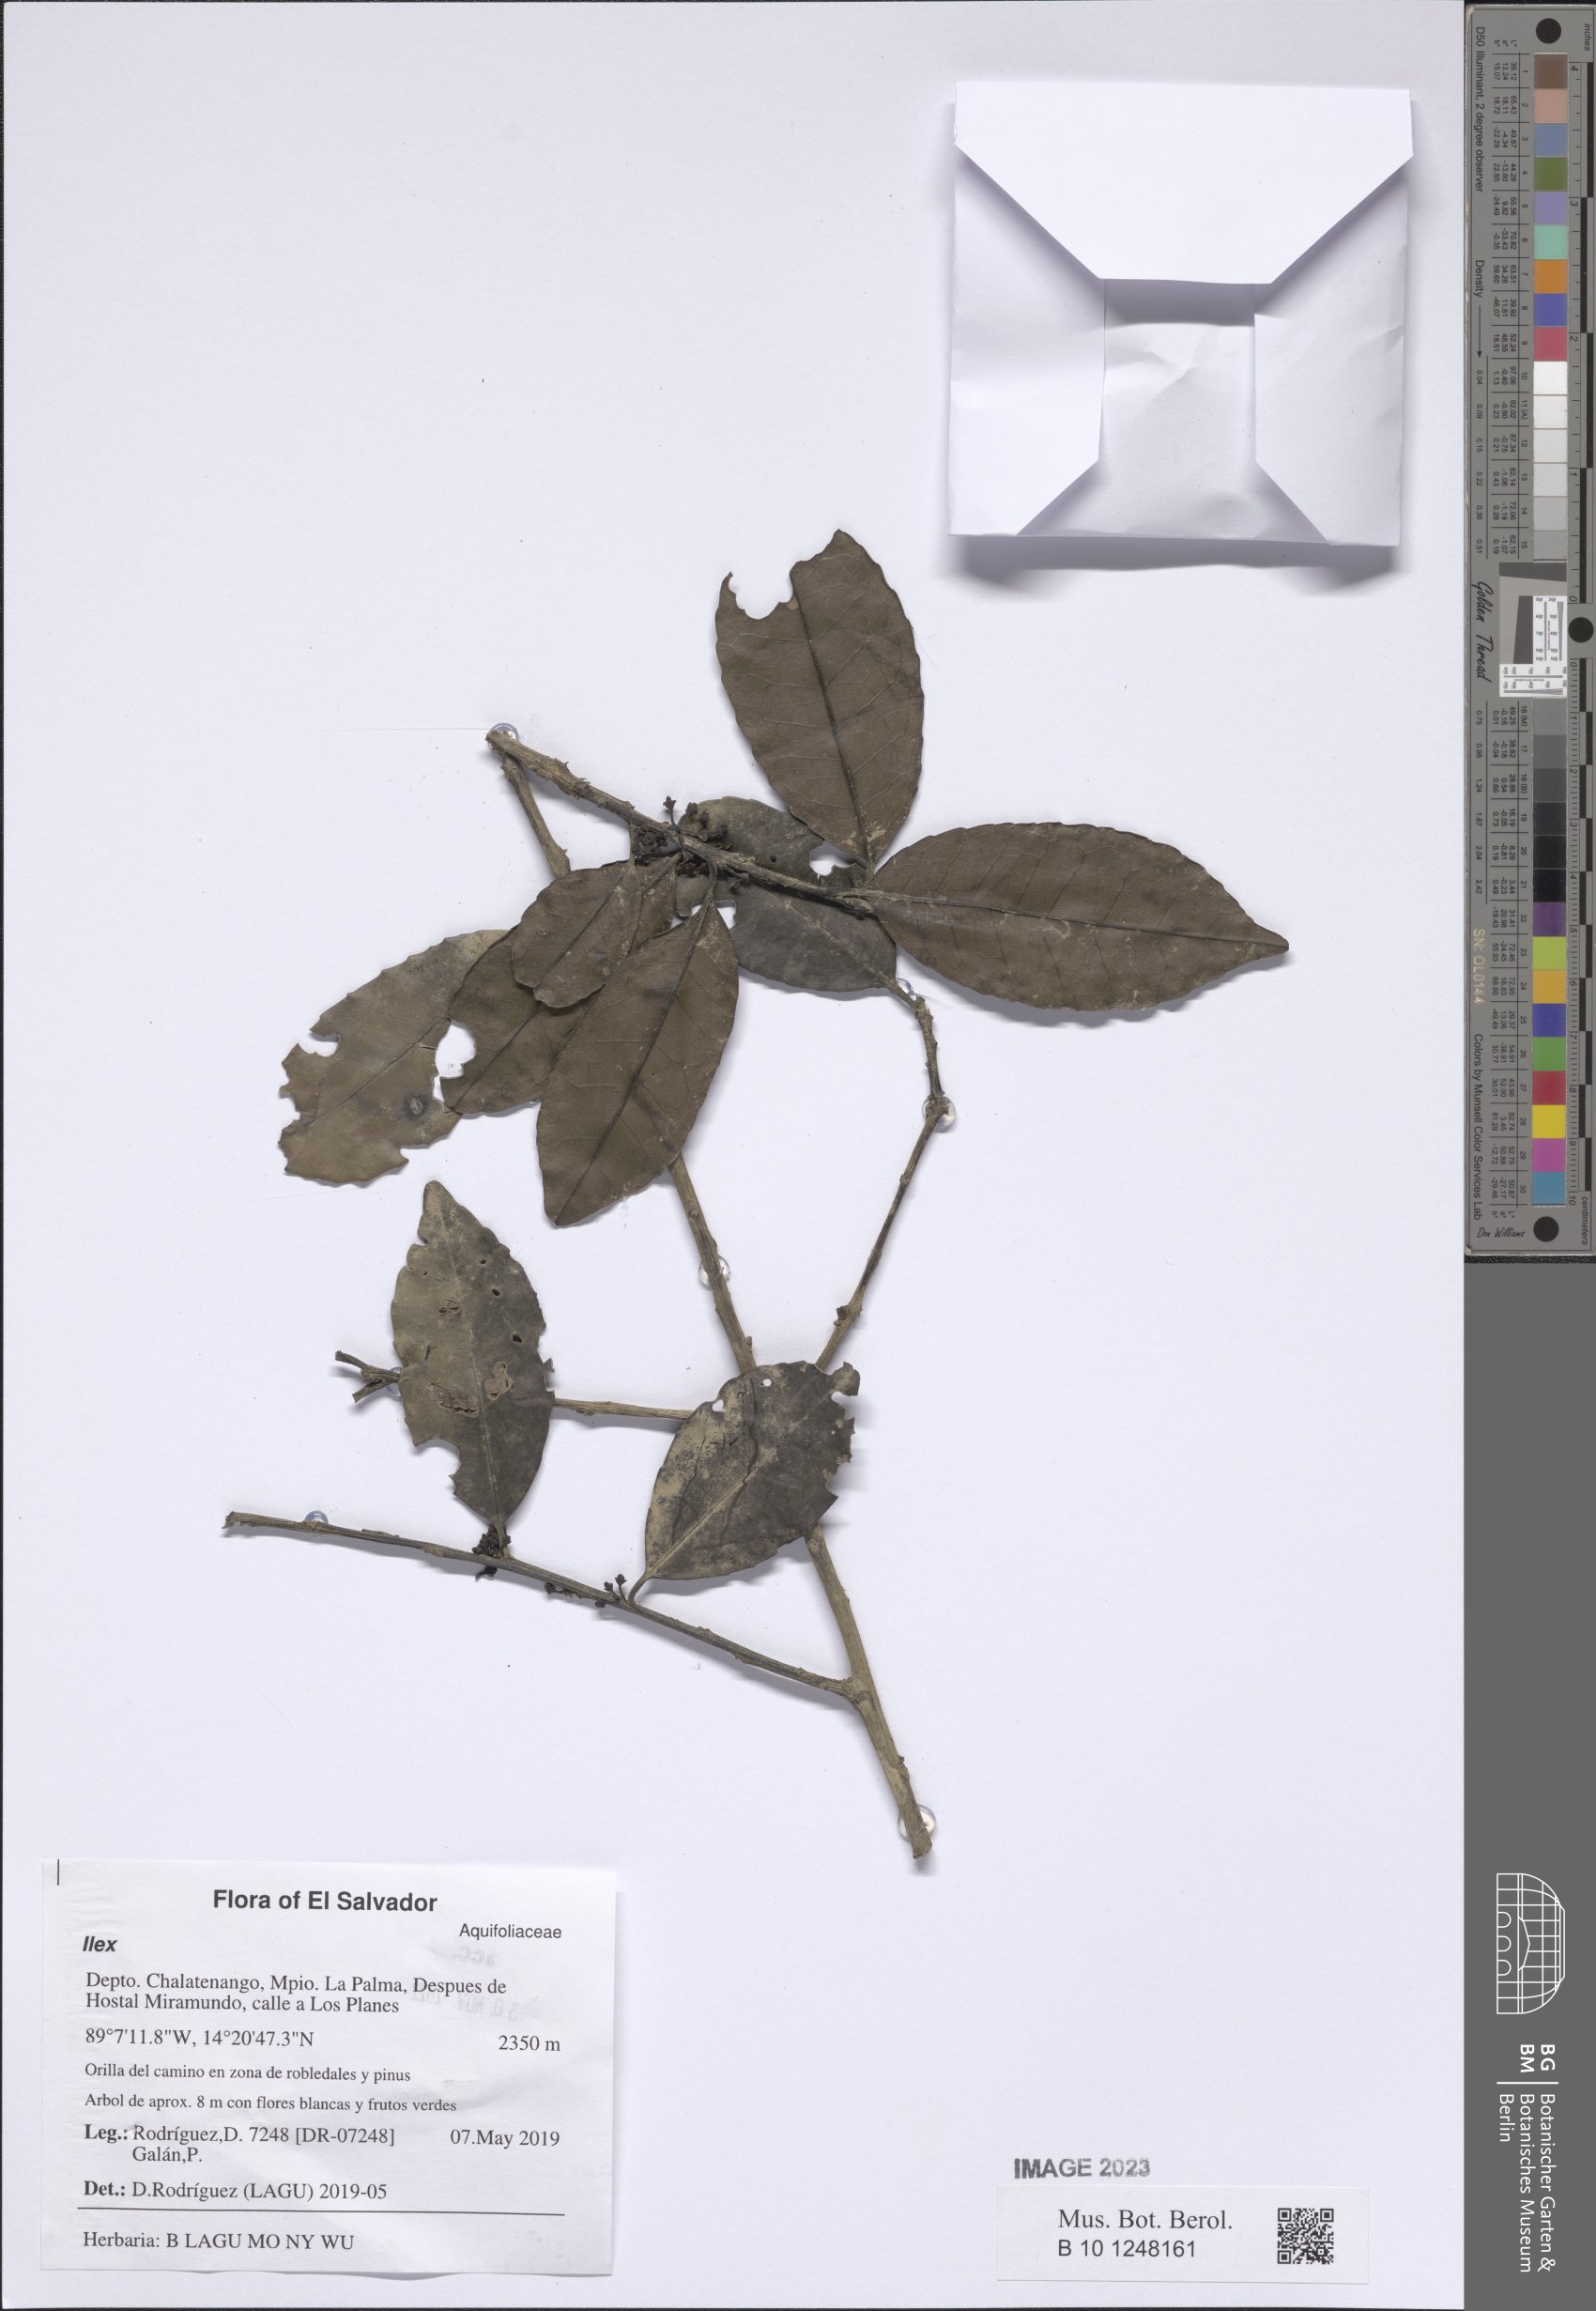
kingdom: Plantae
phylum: Tracheophyta
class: Magnoliopsida
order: Aquifoliales
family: Aquifoliaceae
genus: Ilex
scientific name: Ilex
